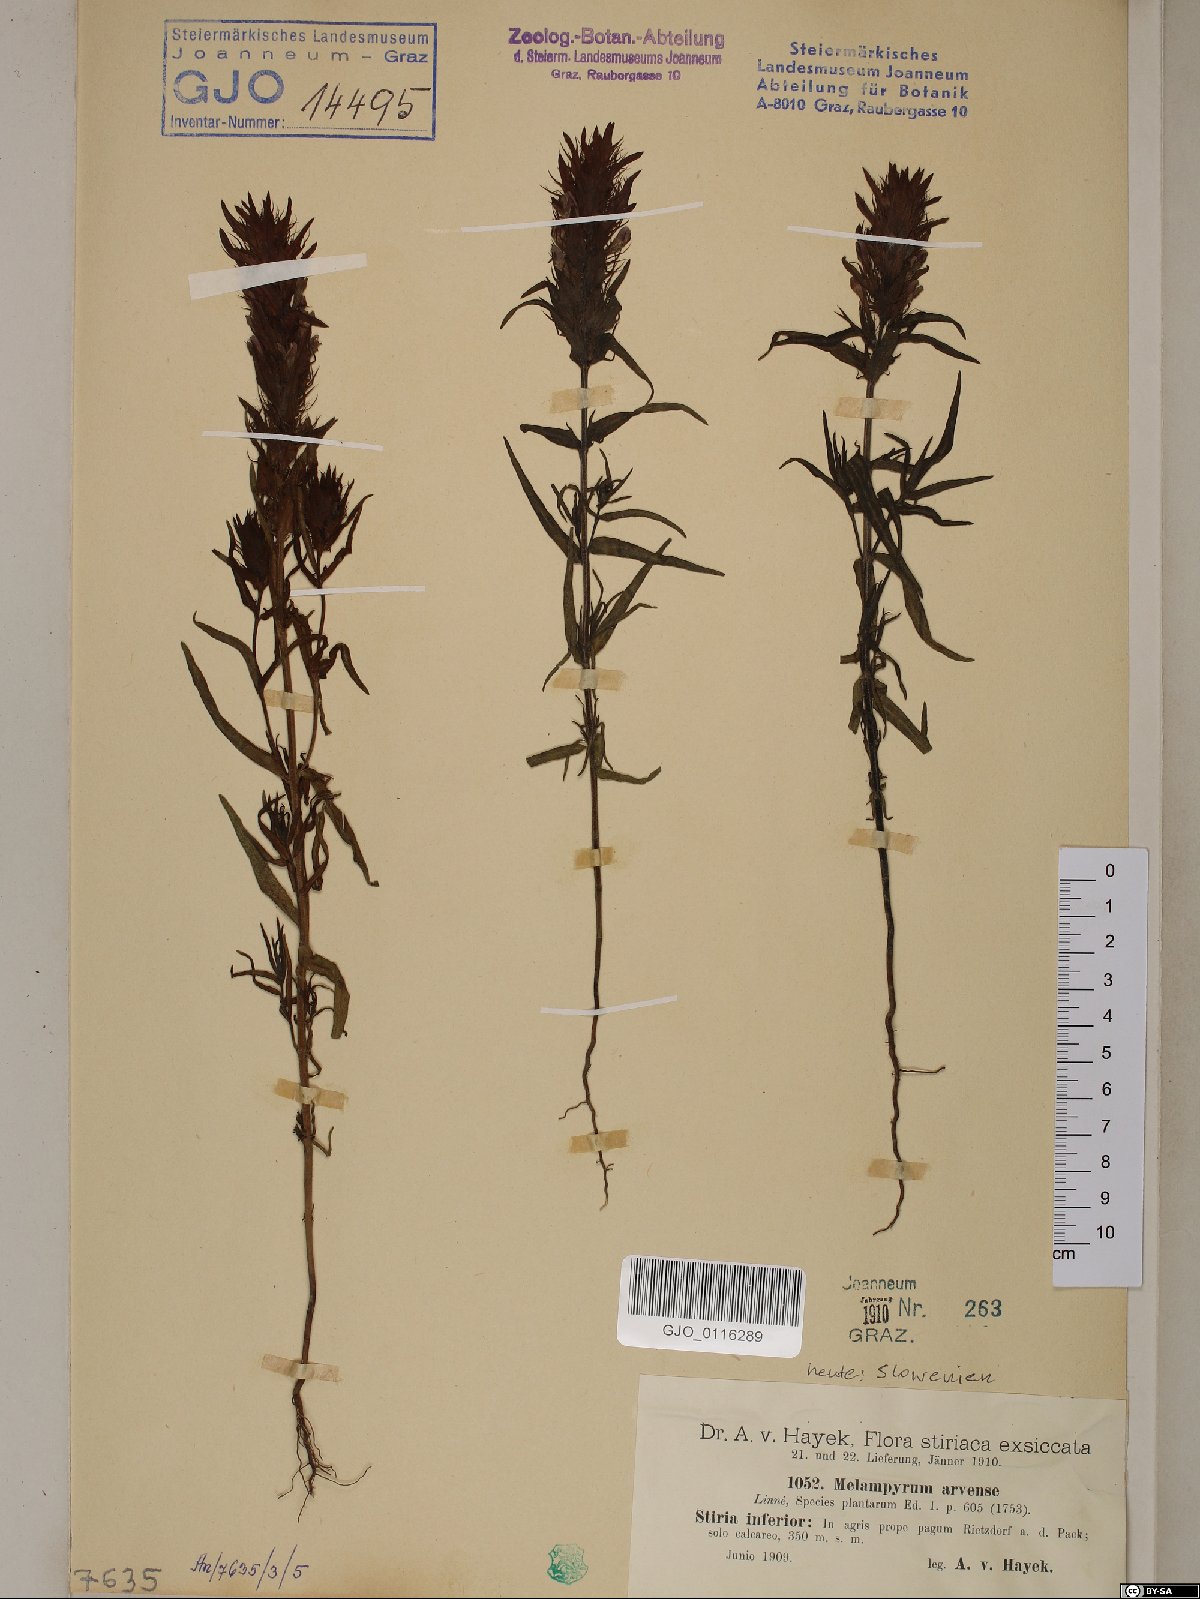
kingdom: Plantae
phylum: Tracheophyta
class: Magnoliopsida
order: Lamiales
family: Orobanchaceae
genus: Melampyrum
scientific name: Melampyrum arvense
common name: Field cow-wheat
